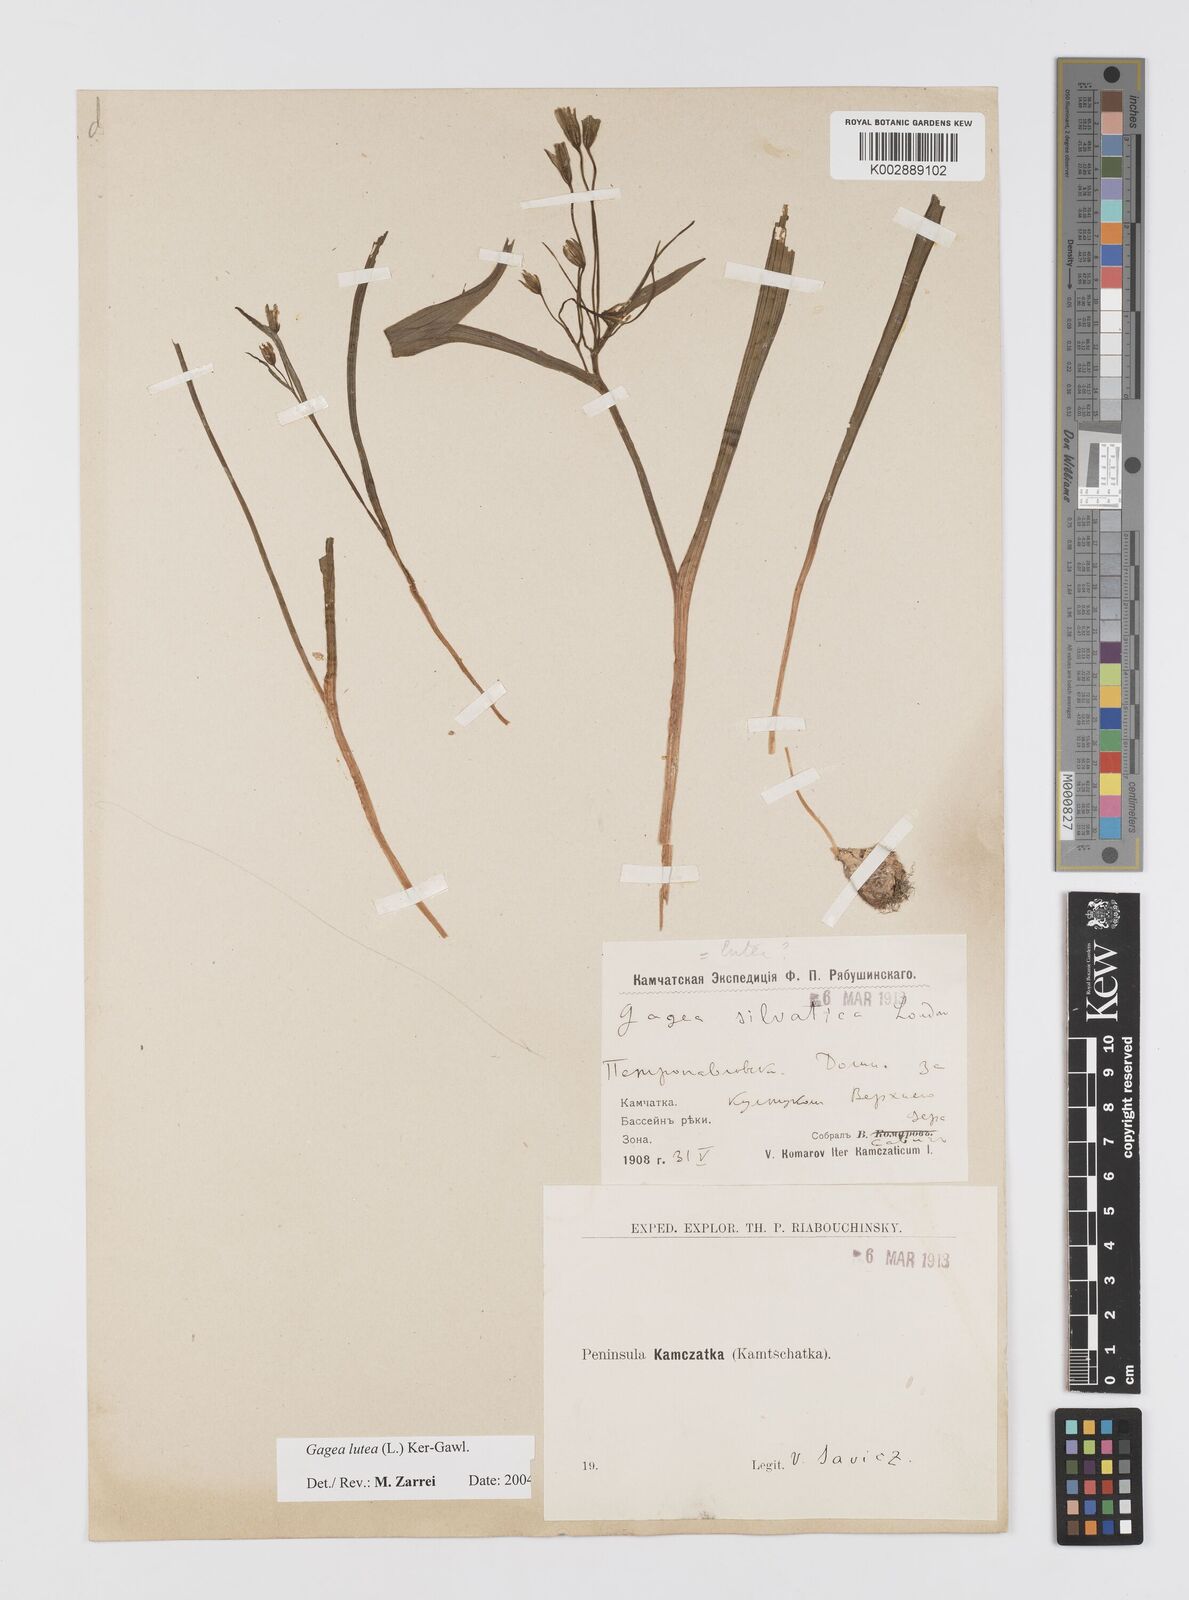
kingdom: Plantae
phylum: Tracheophyta
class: Liliopsida
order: Liliales
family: Liliaceae
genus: Gagea
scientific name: Gagea lutea
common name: Yellow star-of-bethlehem
